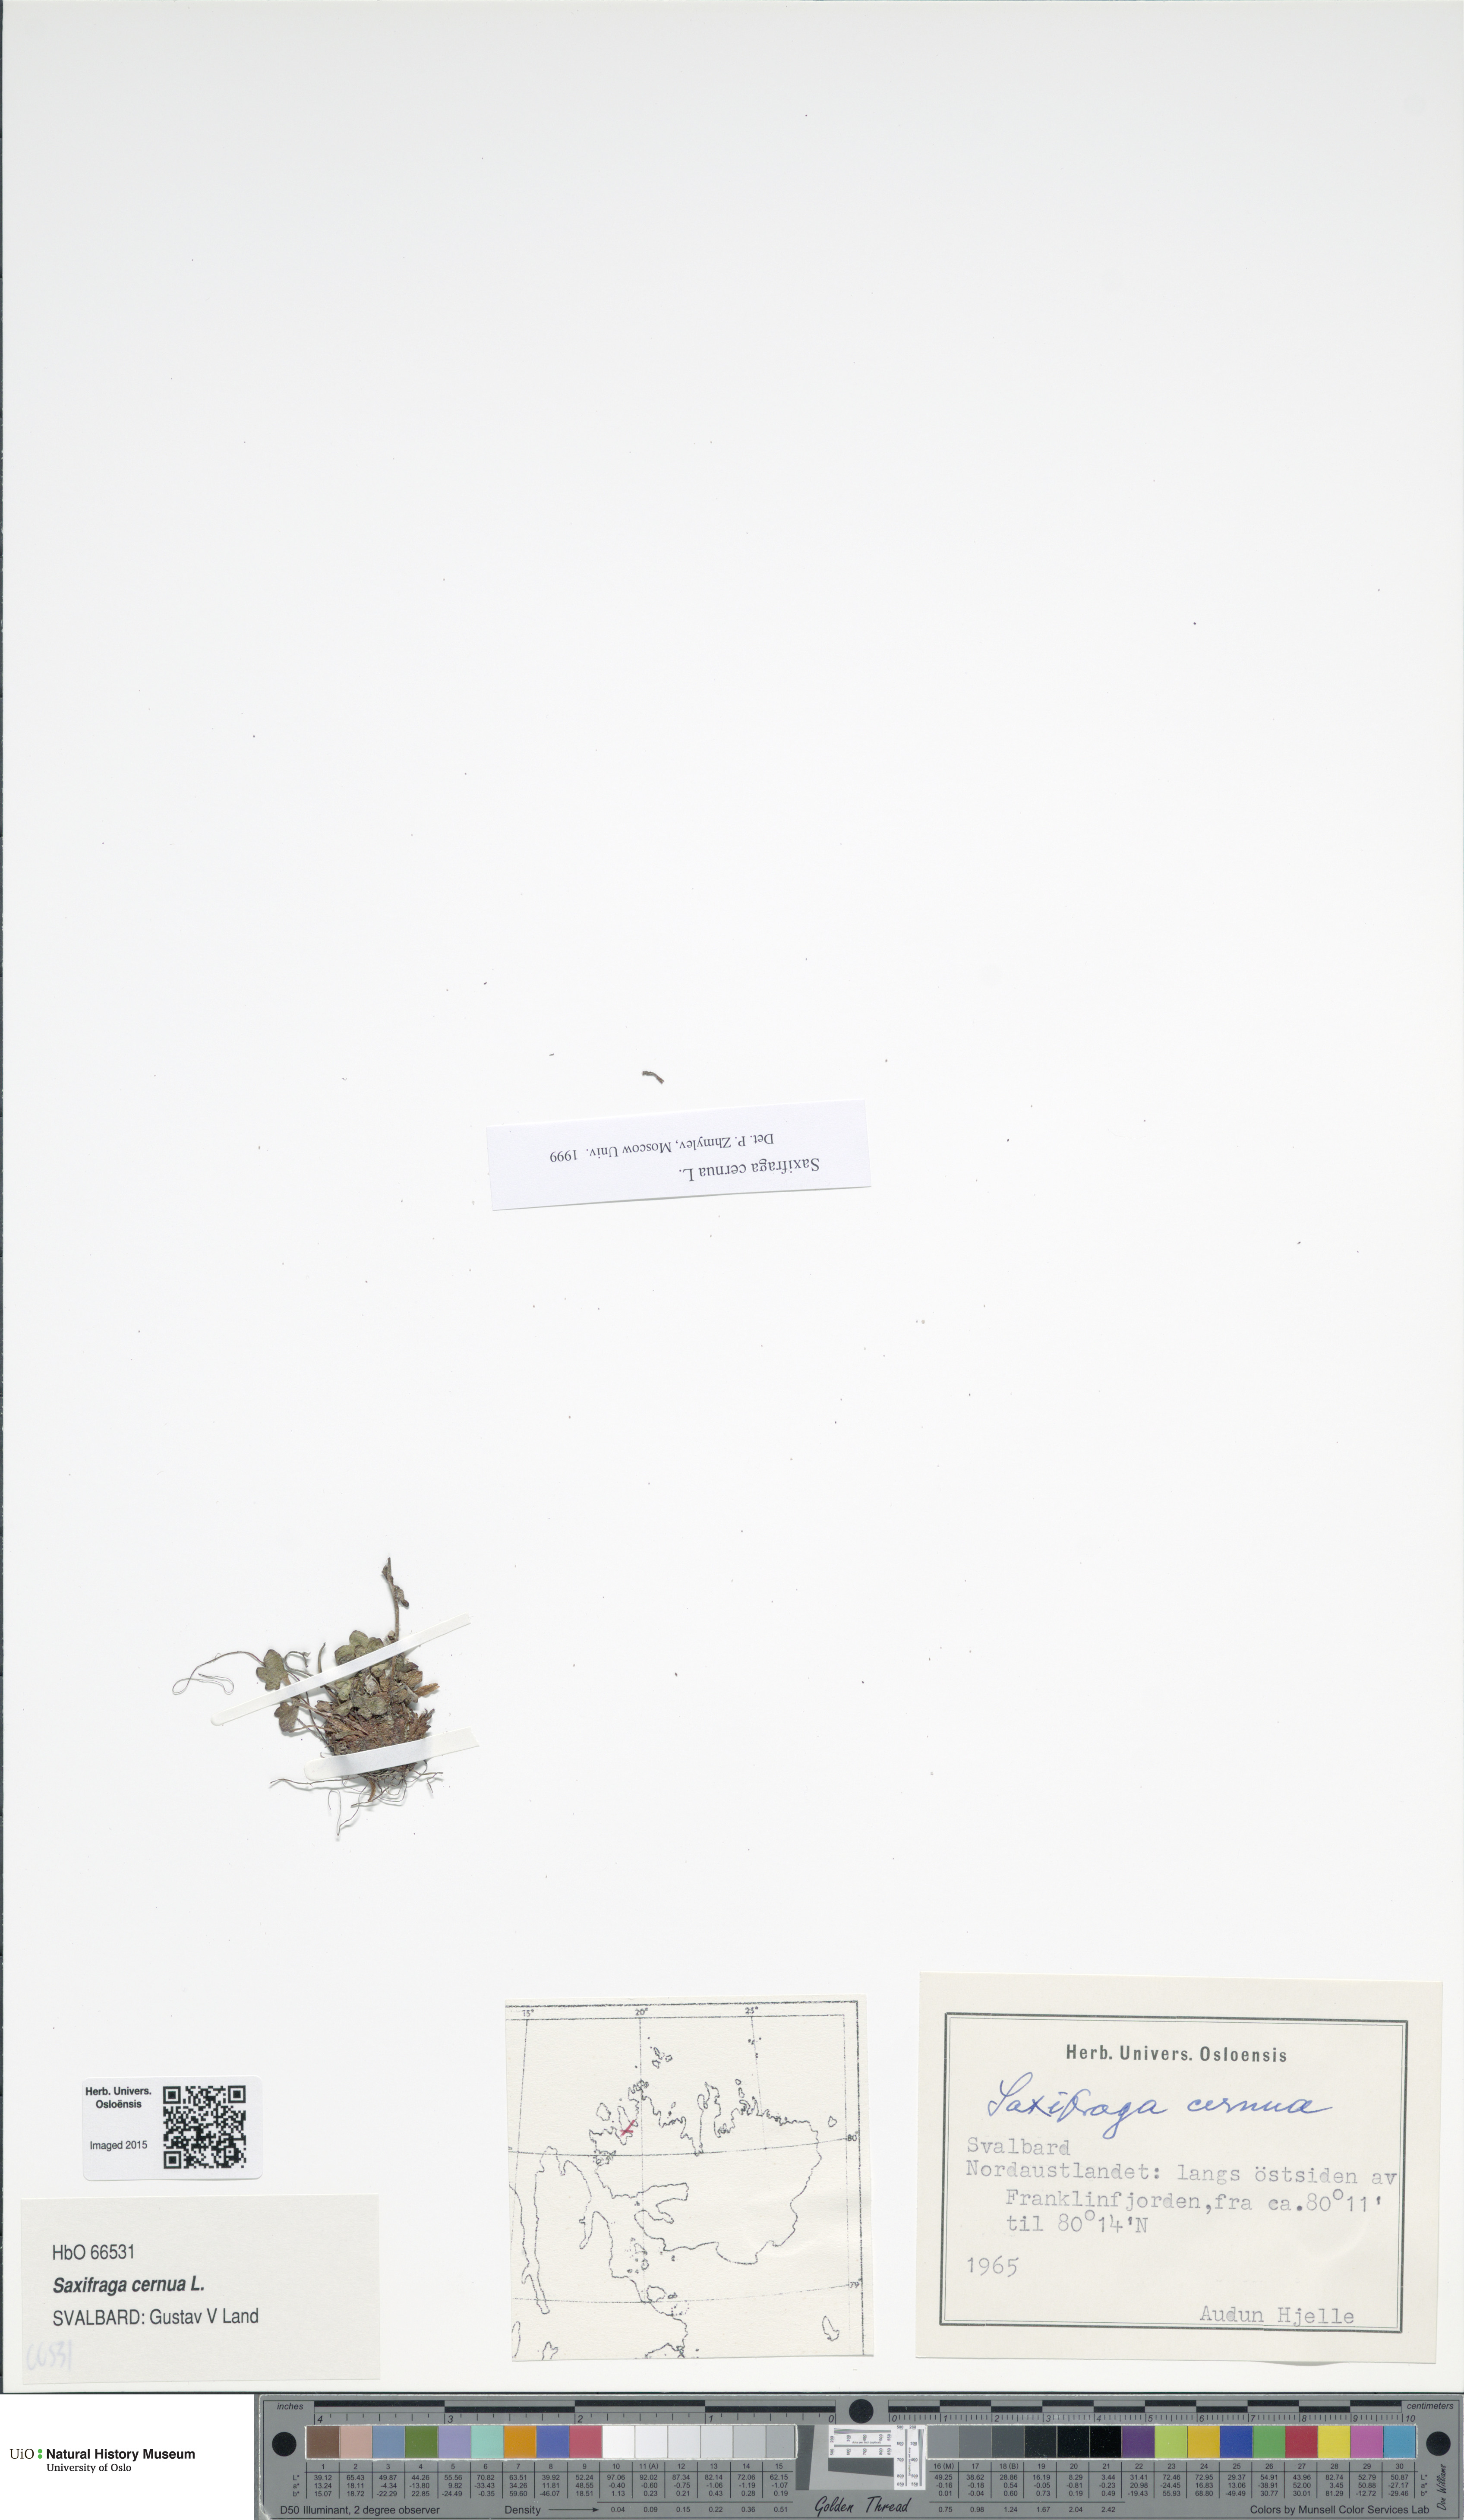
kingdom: Plantae
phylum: Tracheophyta
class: Magnoliopsida
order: Saxifragales
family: Saxifragaceae
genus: Saxifraga
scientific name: Saxifraga cernua
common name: Drooping saxifrage
